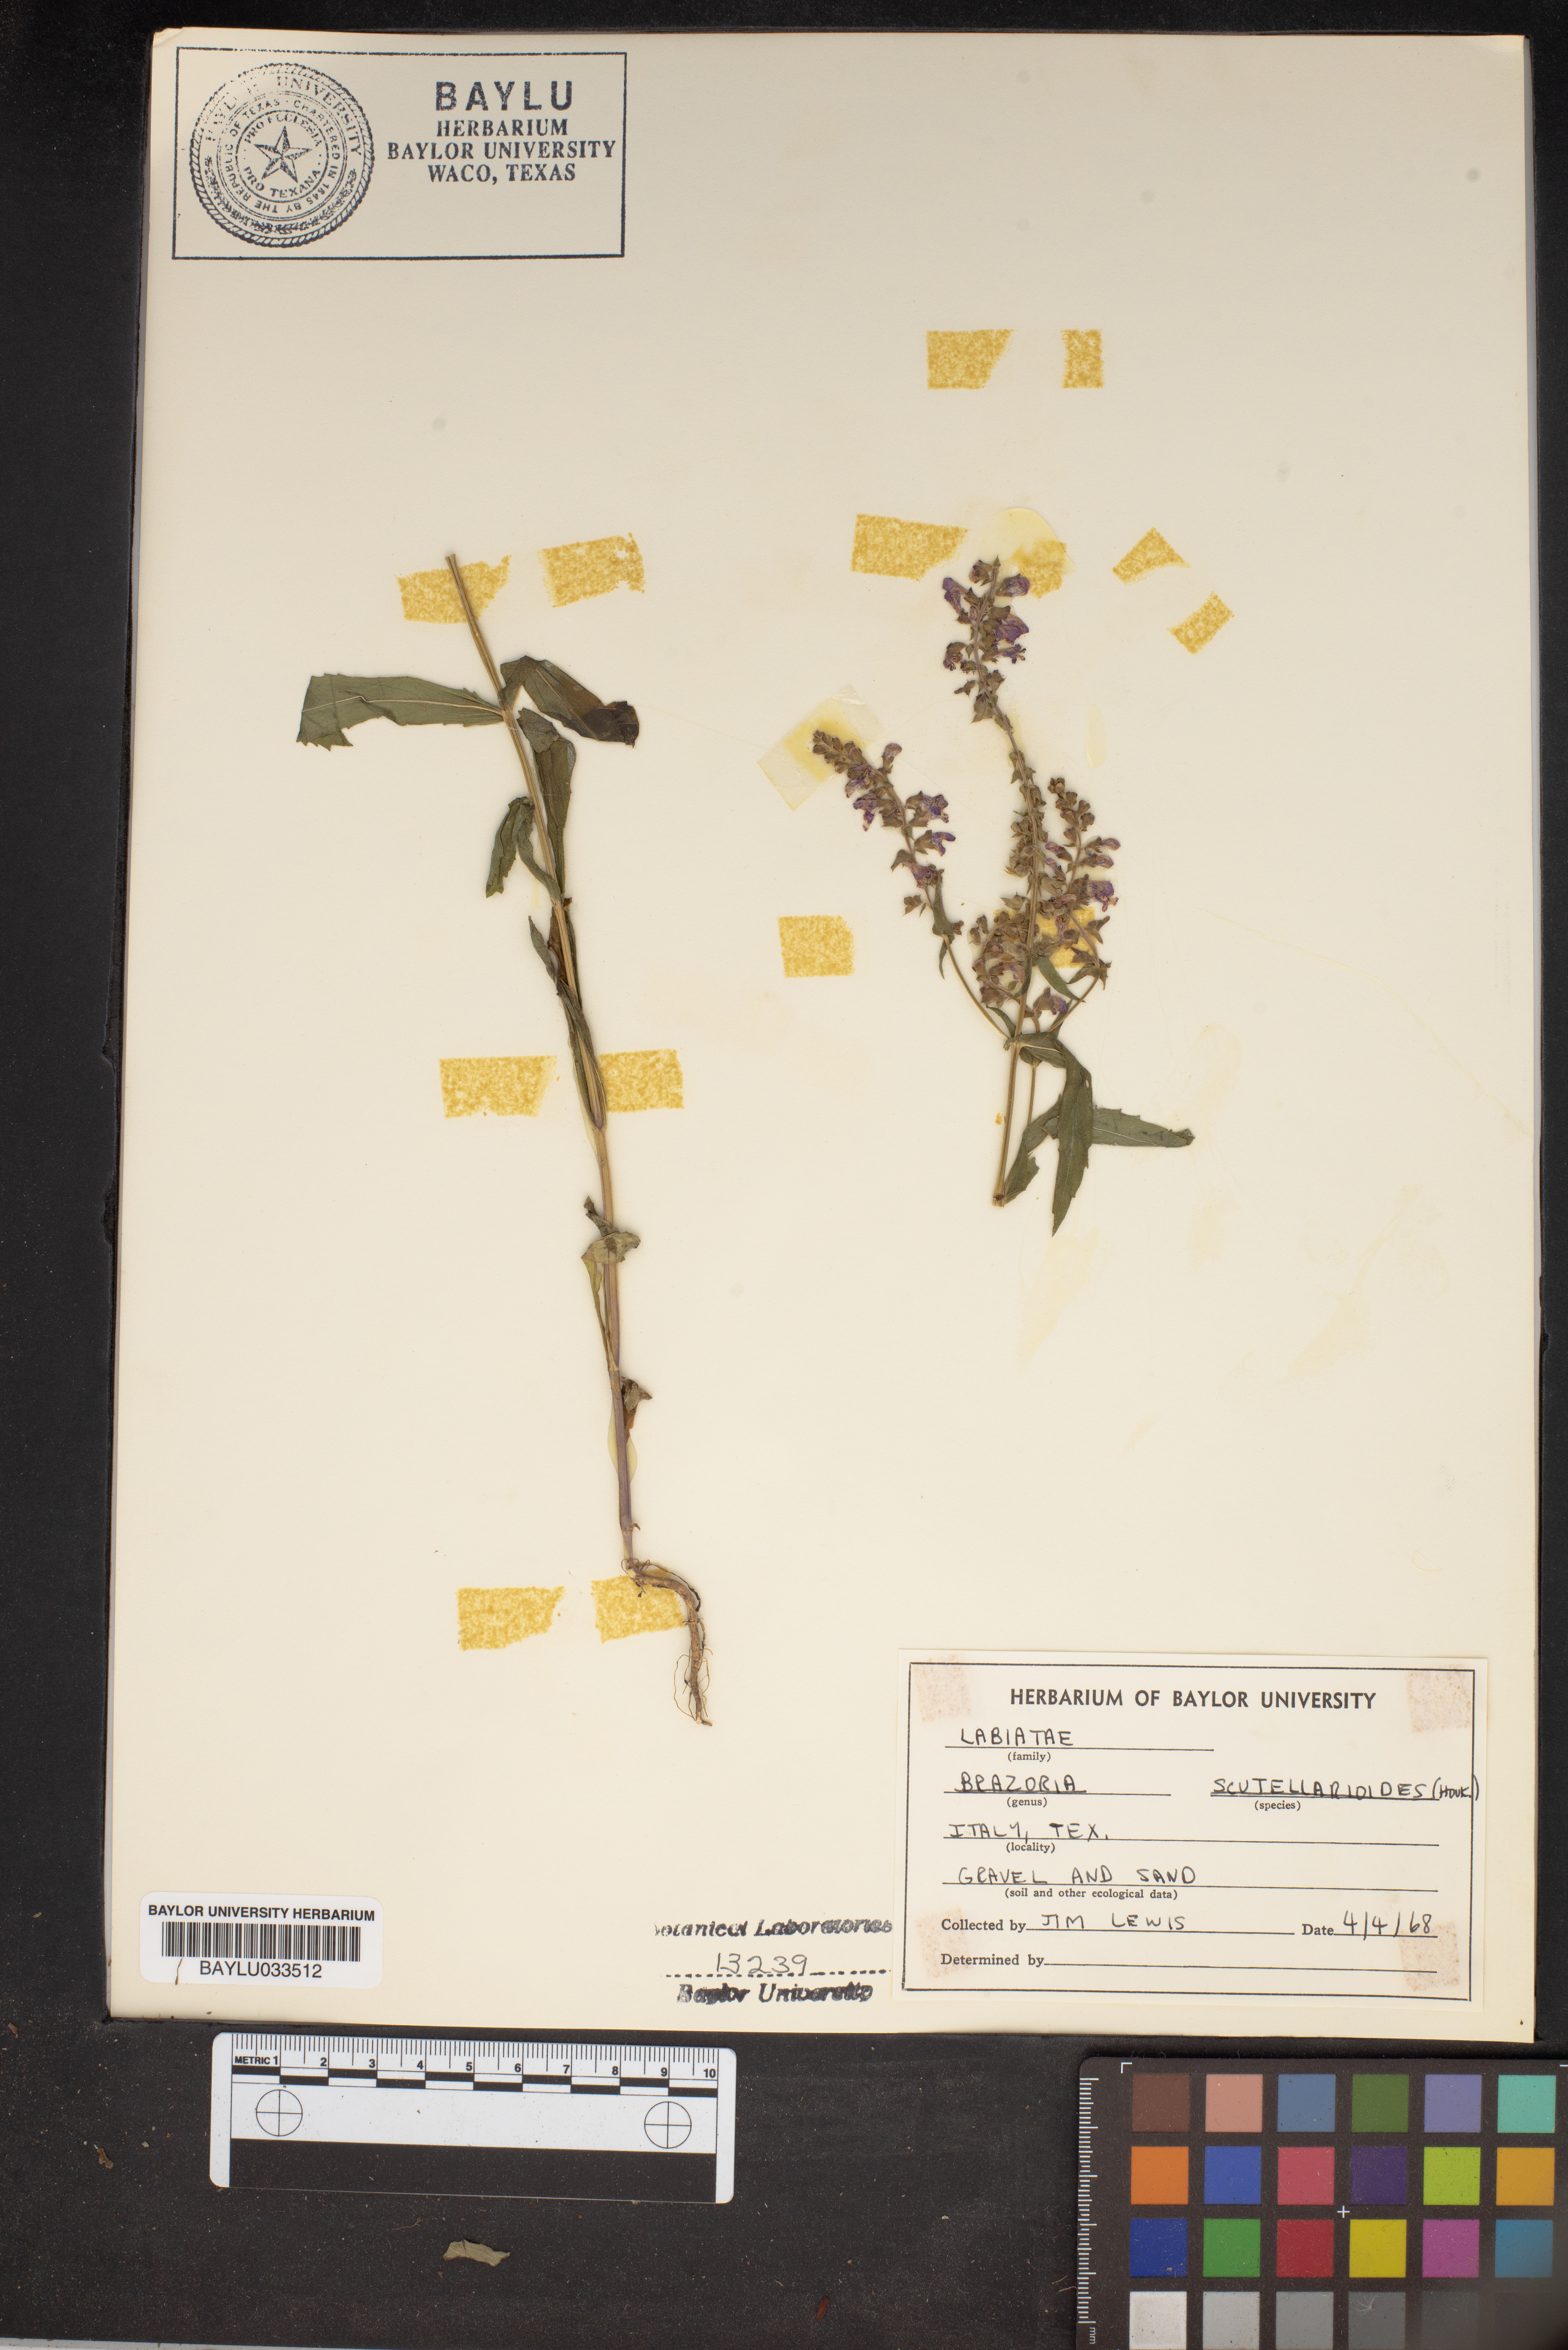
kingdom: Plantae
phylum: Tracheophyta
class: Magnoliopsida
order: Lamiales
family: Lamiaceae
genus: Warnockia
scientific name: Warnockia scutellarioides
